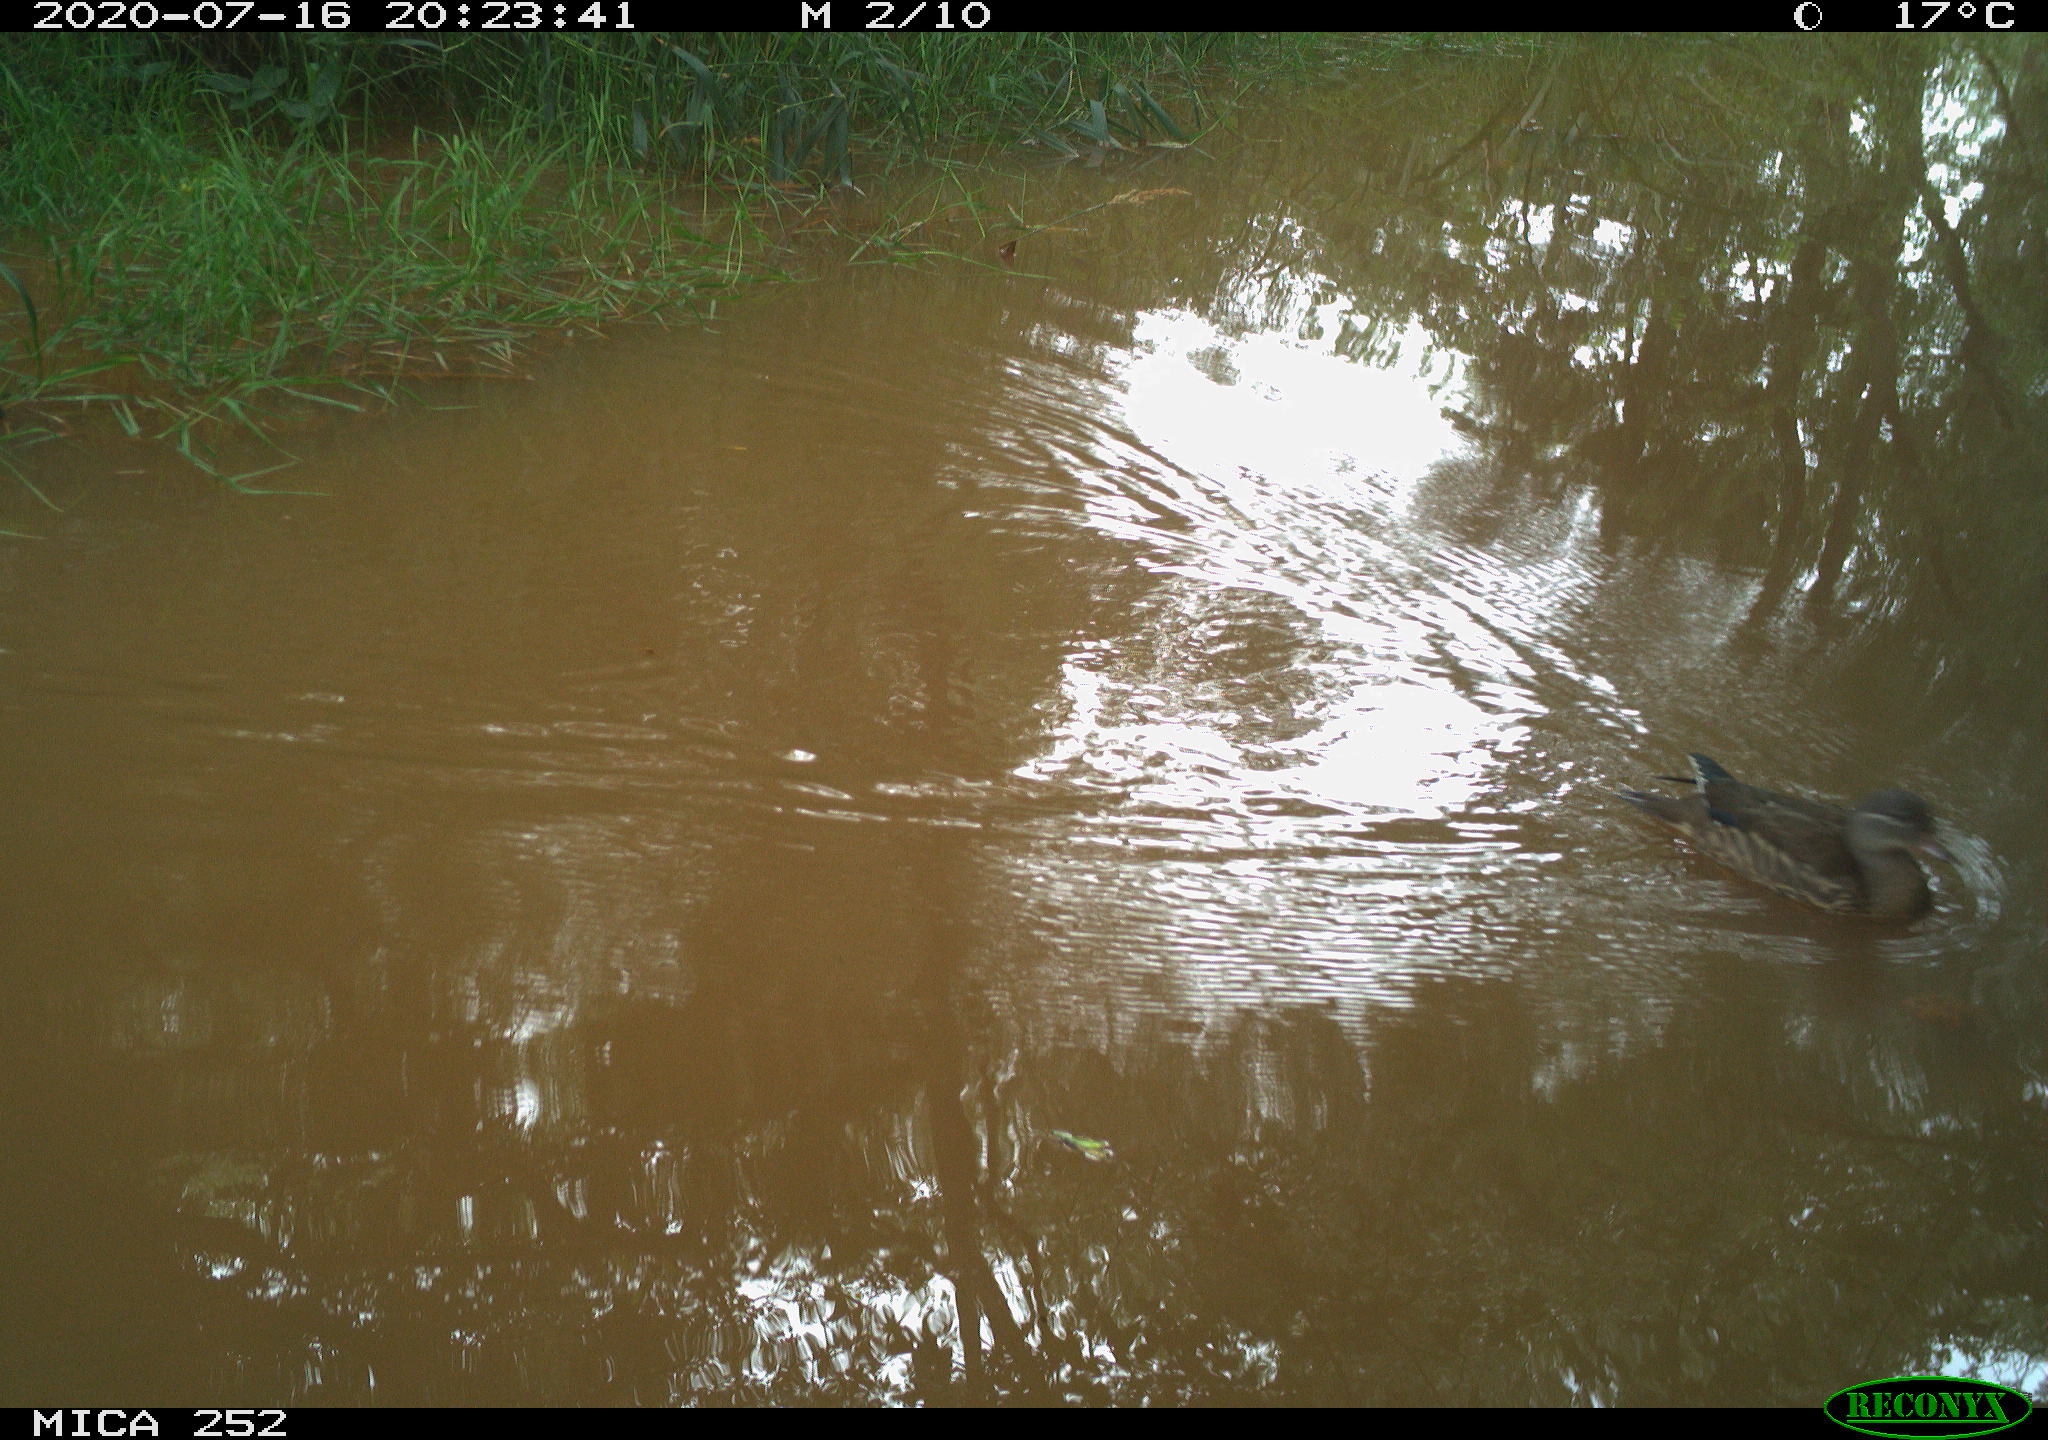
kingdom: Animalia
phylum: Chordata
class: Aves
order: Anseriformes
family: Anatidae
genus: Aix
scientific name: Aix galericulata
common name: Mandarin duck
